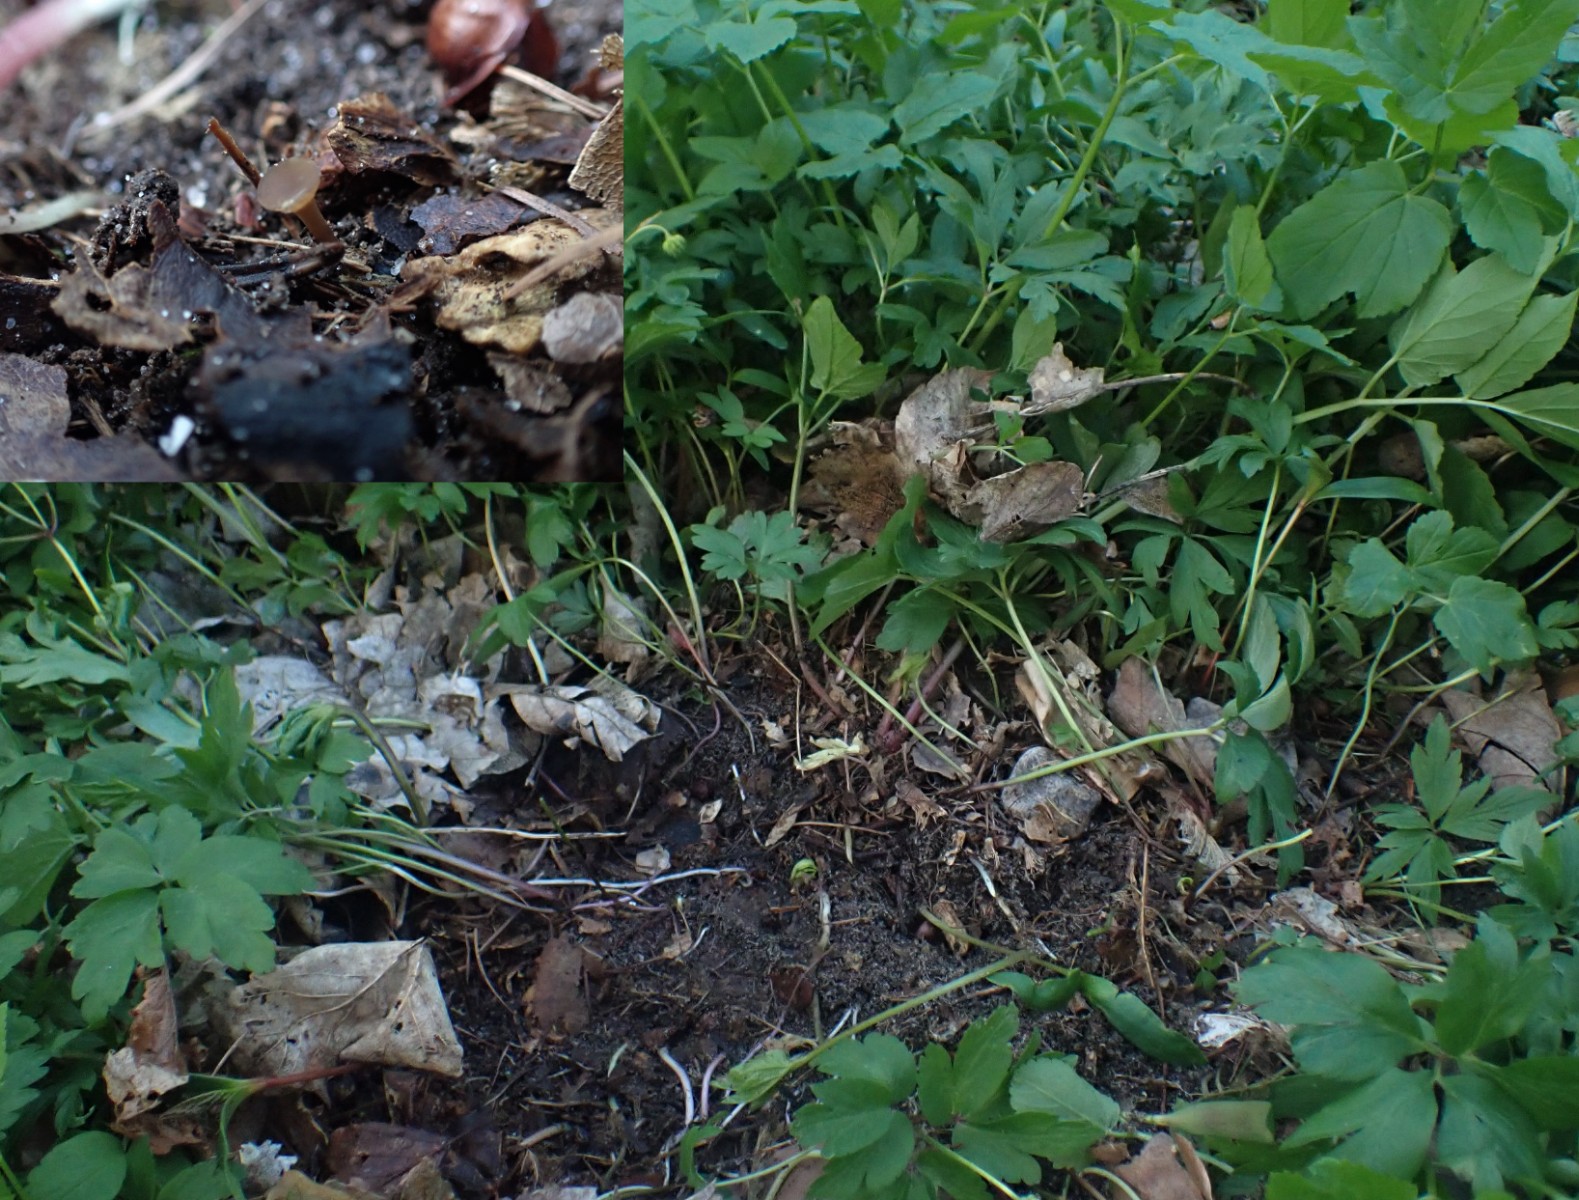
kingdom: Fungi
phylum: Ascomycota
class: Leotiomycetes
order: Helotiales
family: Sclerotiniaceae
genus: Dumontinia
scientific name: Dumontinia tuberosa
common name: anemone-knoldskive
